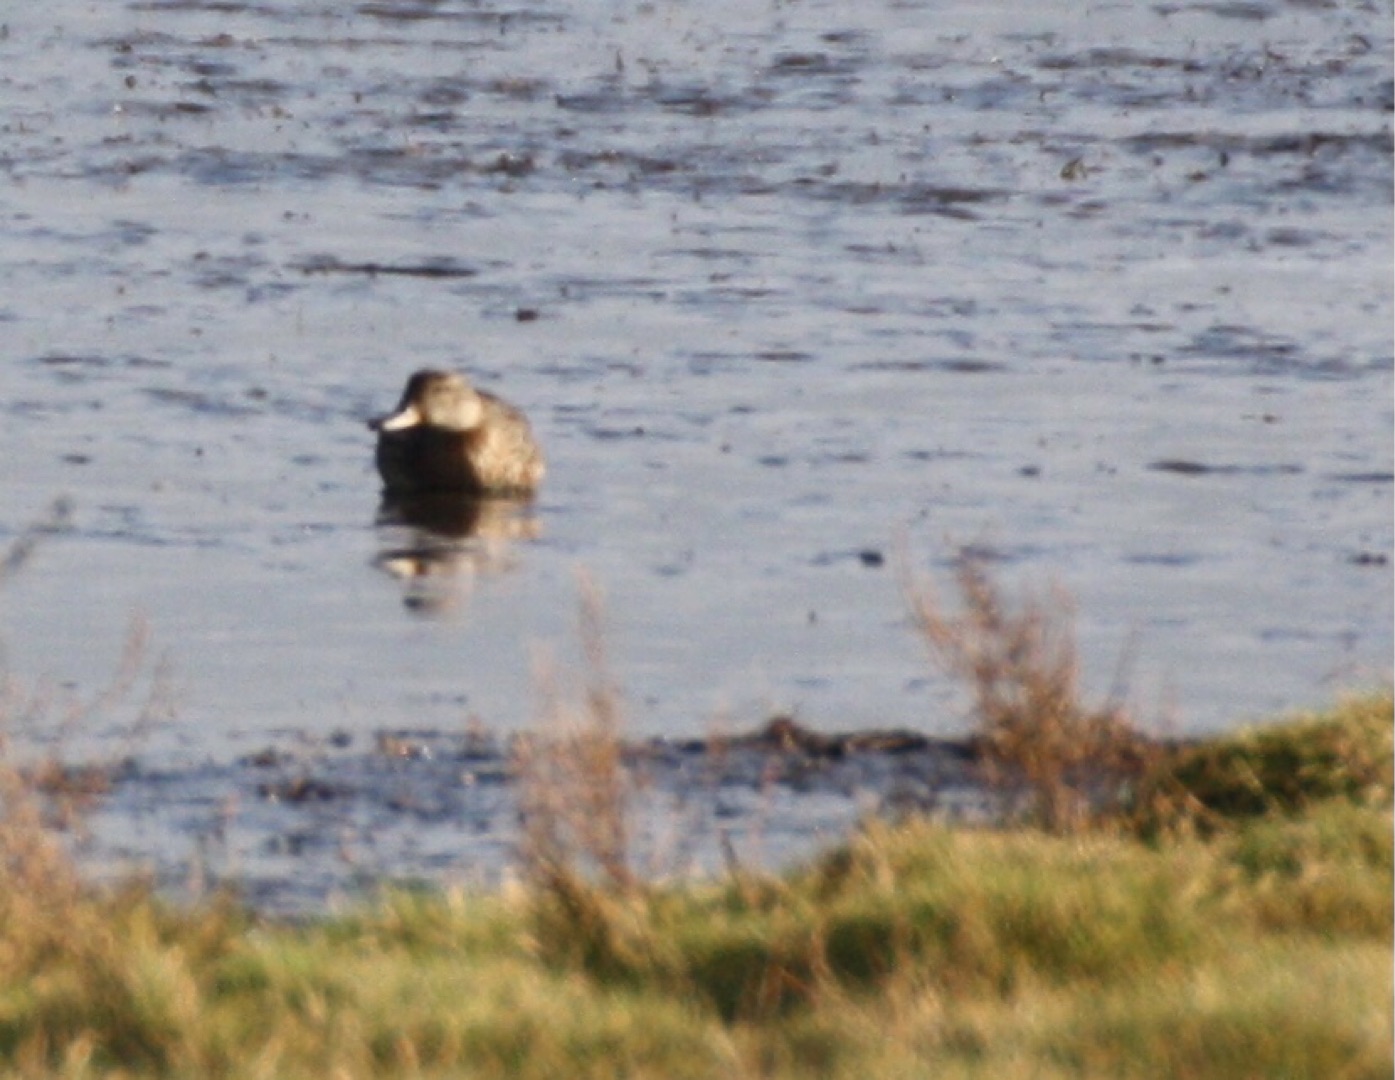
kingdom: Animalia
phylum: Chordata
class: Aves
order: Anseriformes
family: Anatidae
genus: Anas
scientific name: Anas crecca
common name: Krikand
